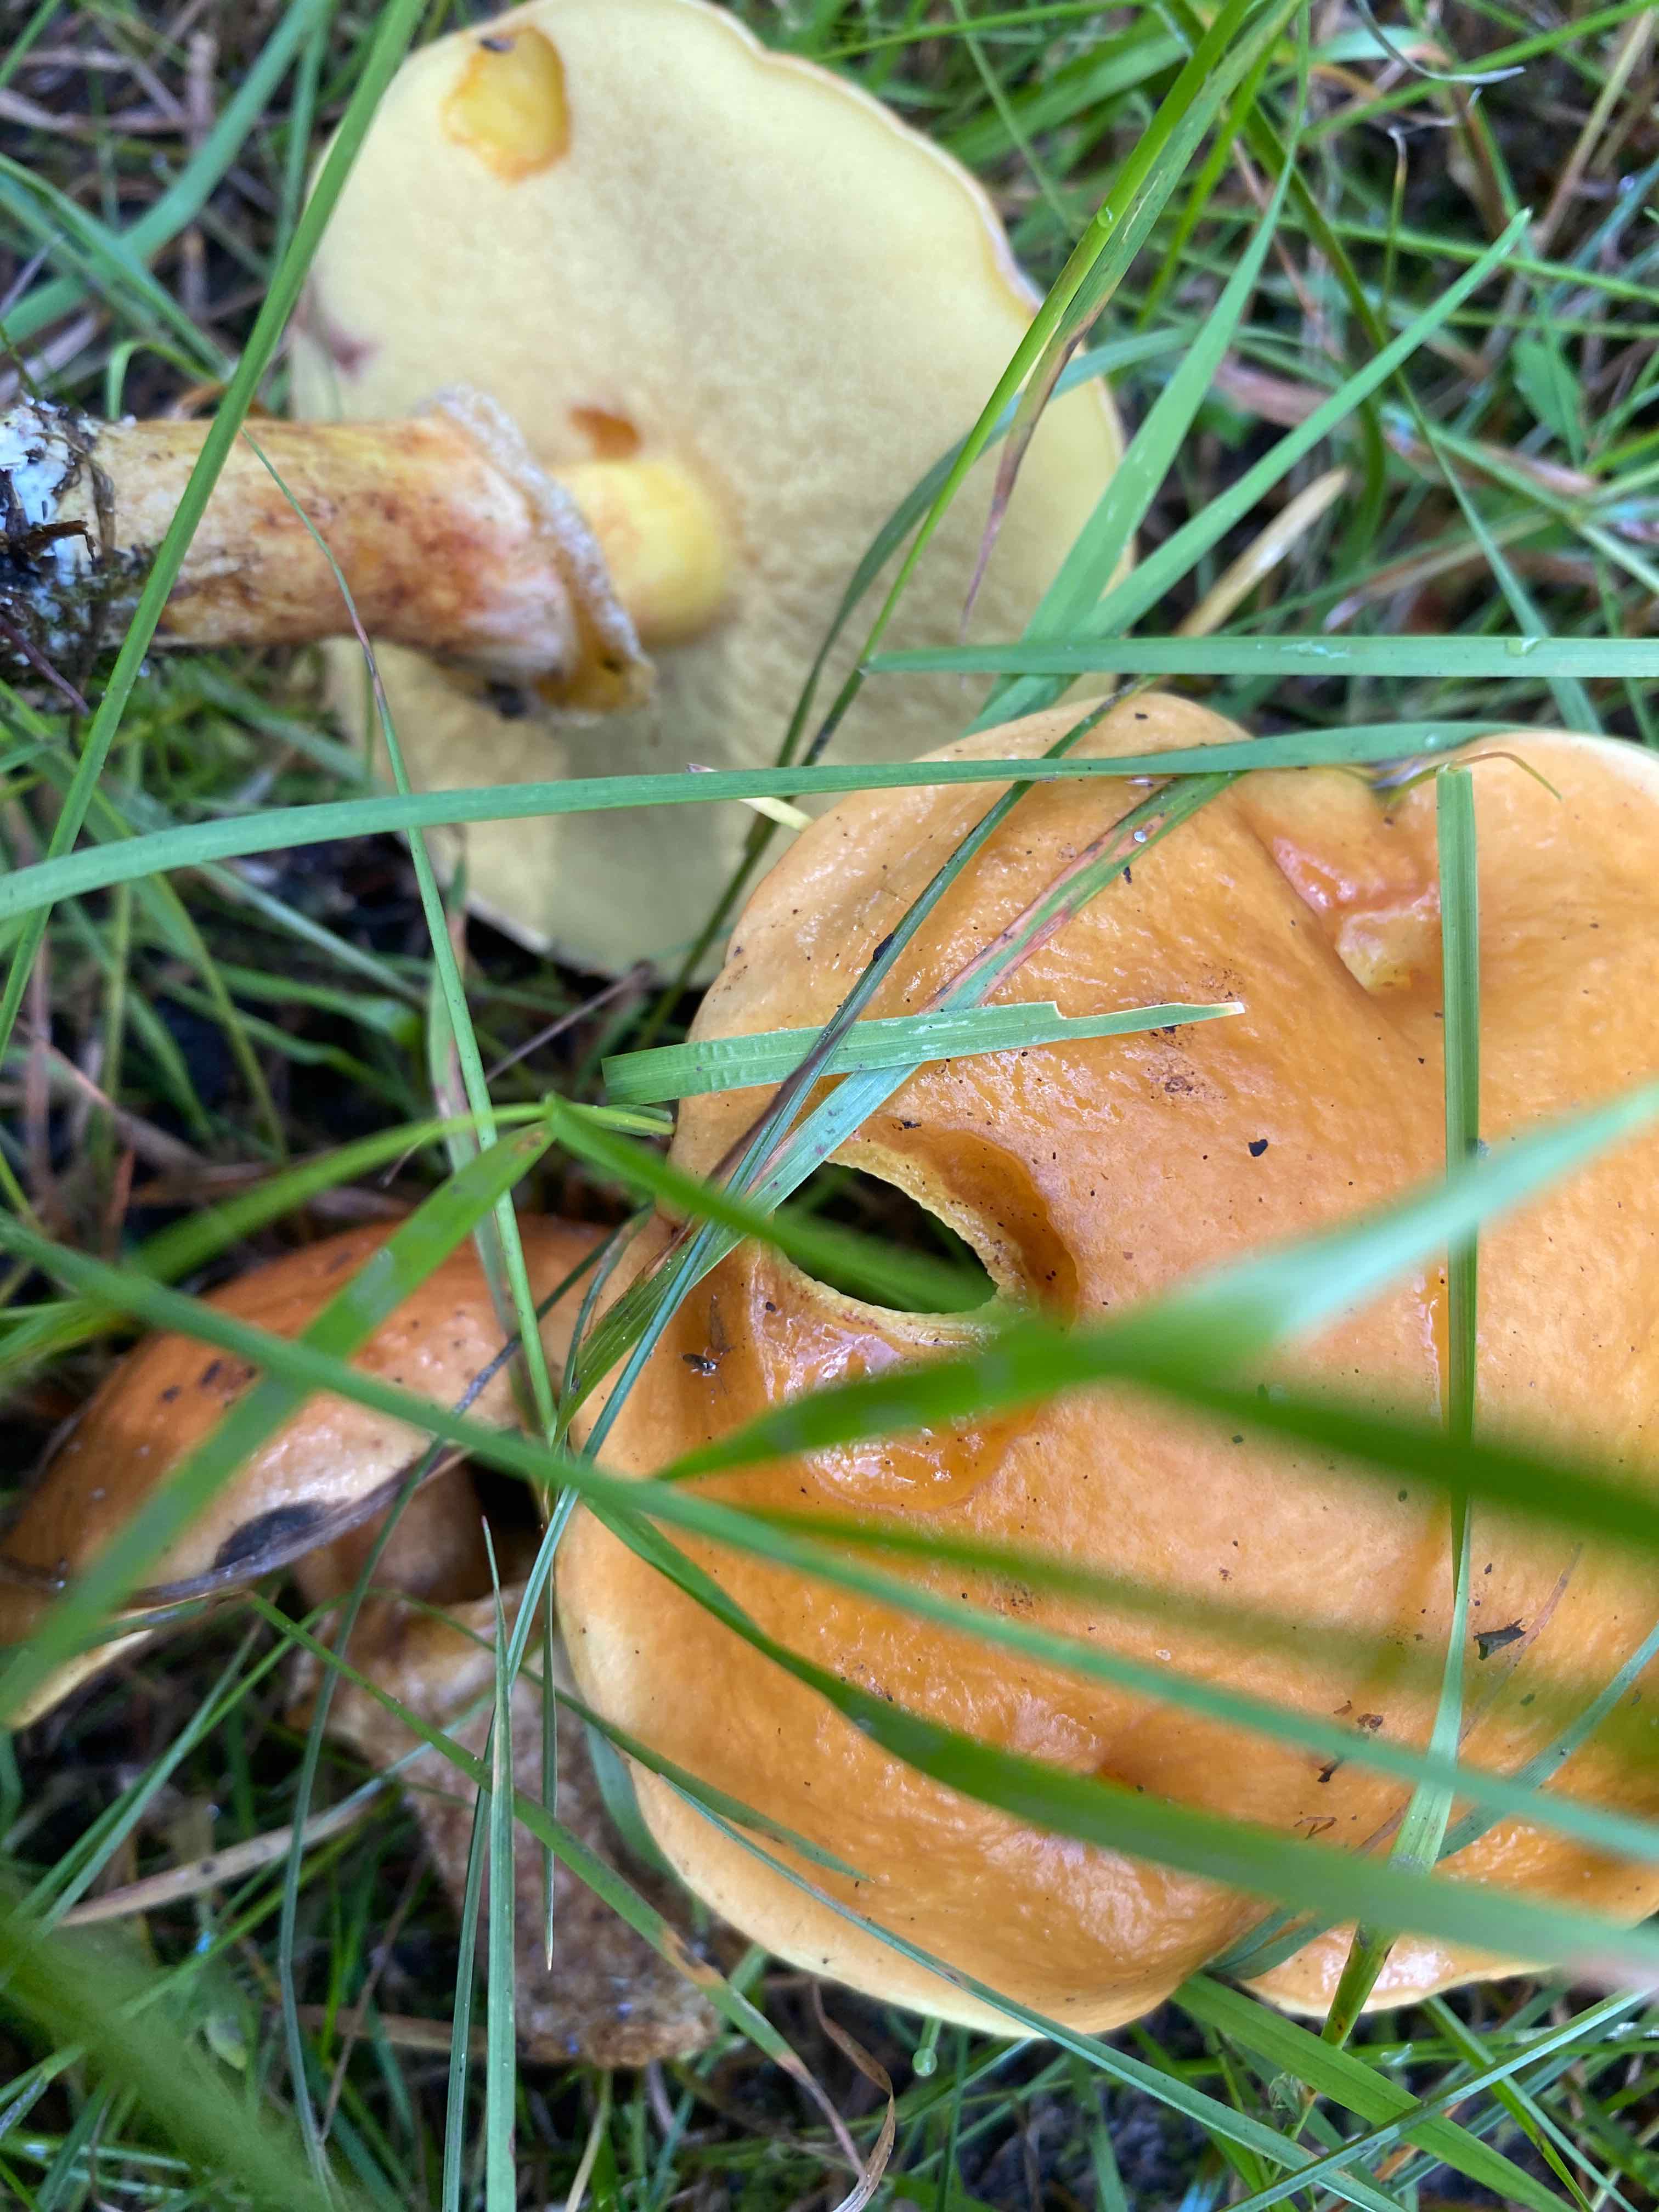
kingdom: Fungi
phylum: Basidiomycota
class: Agaricomycetes
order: Boletales
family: Suillaceae
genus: Suillus
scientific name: Suillus grevillei
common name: lærke-slimrørhat
